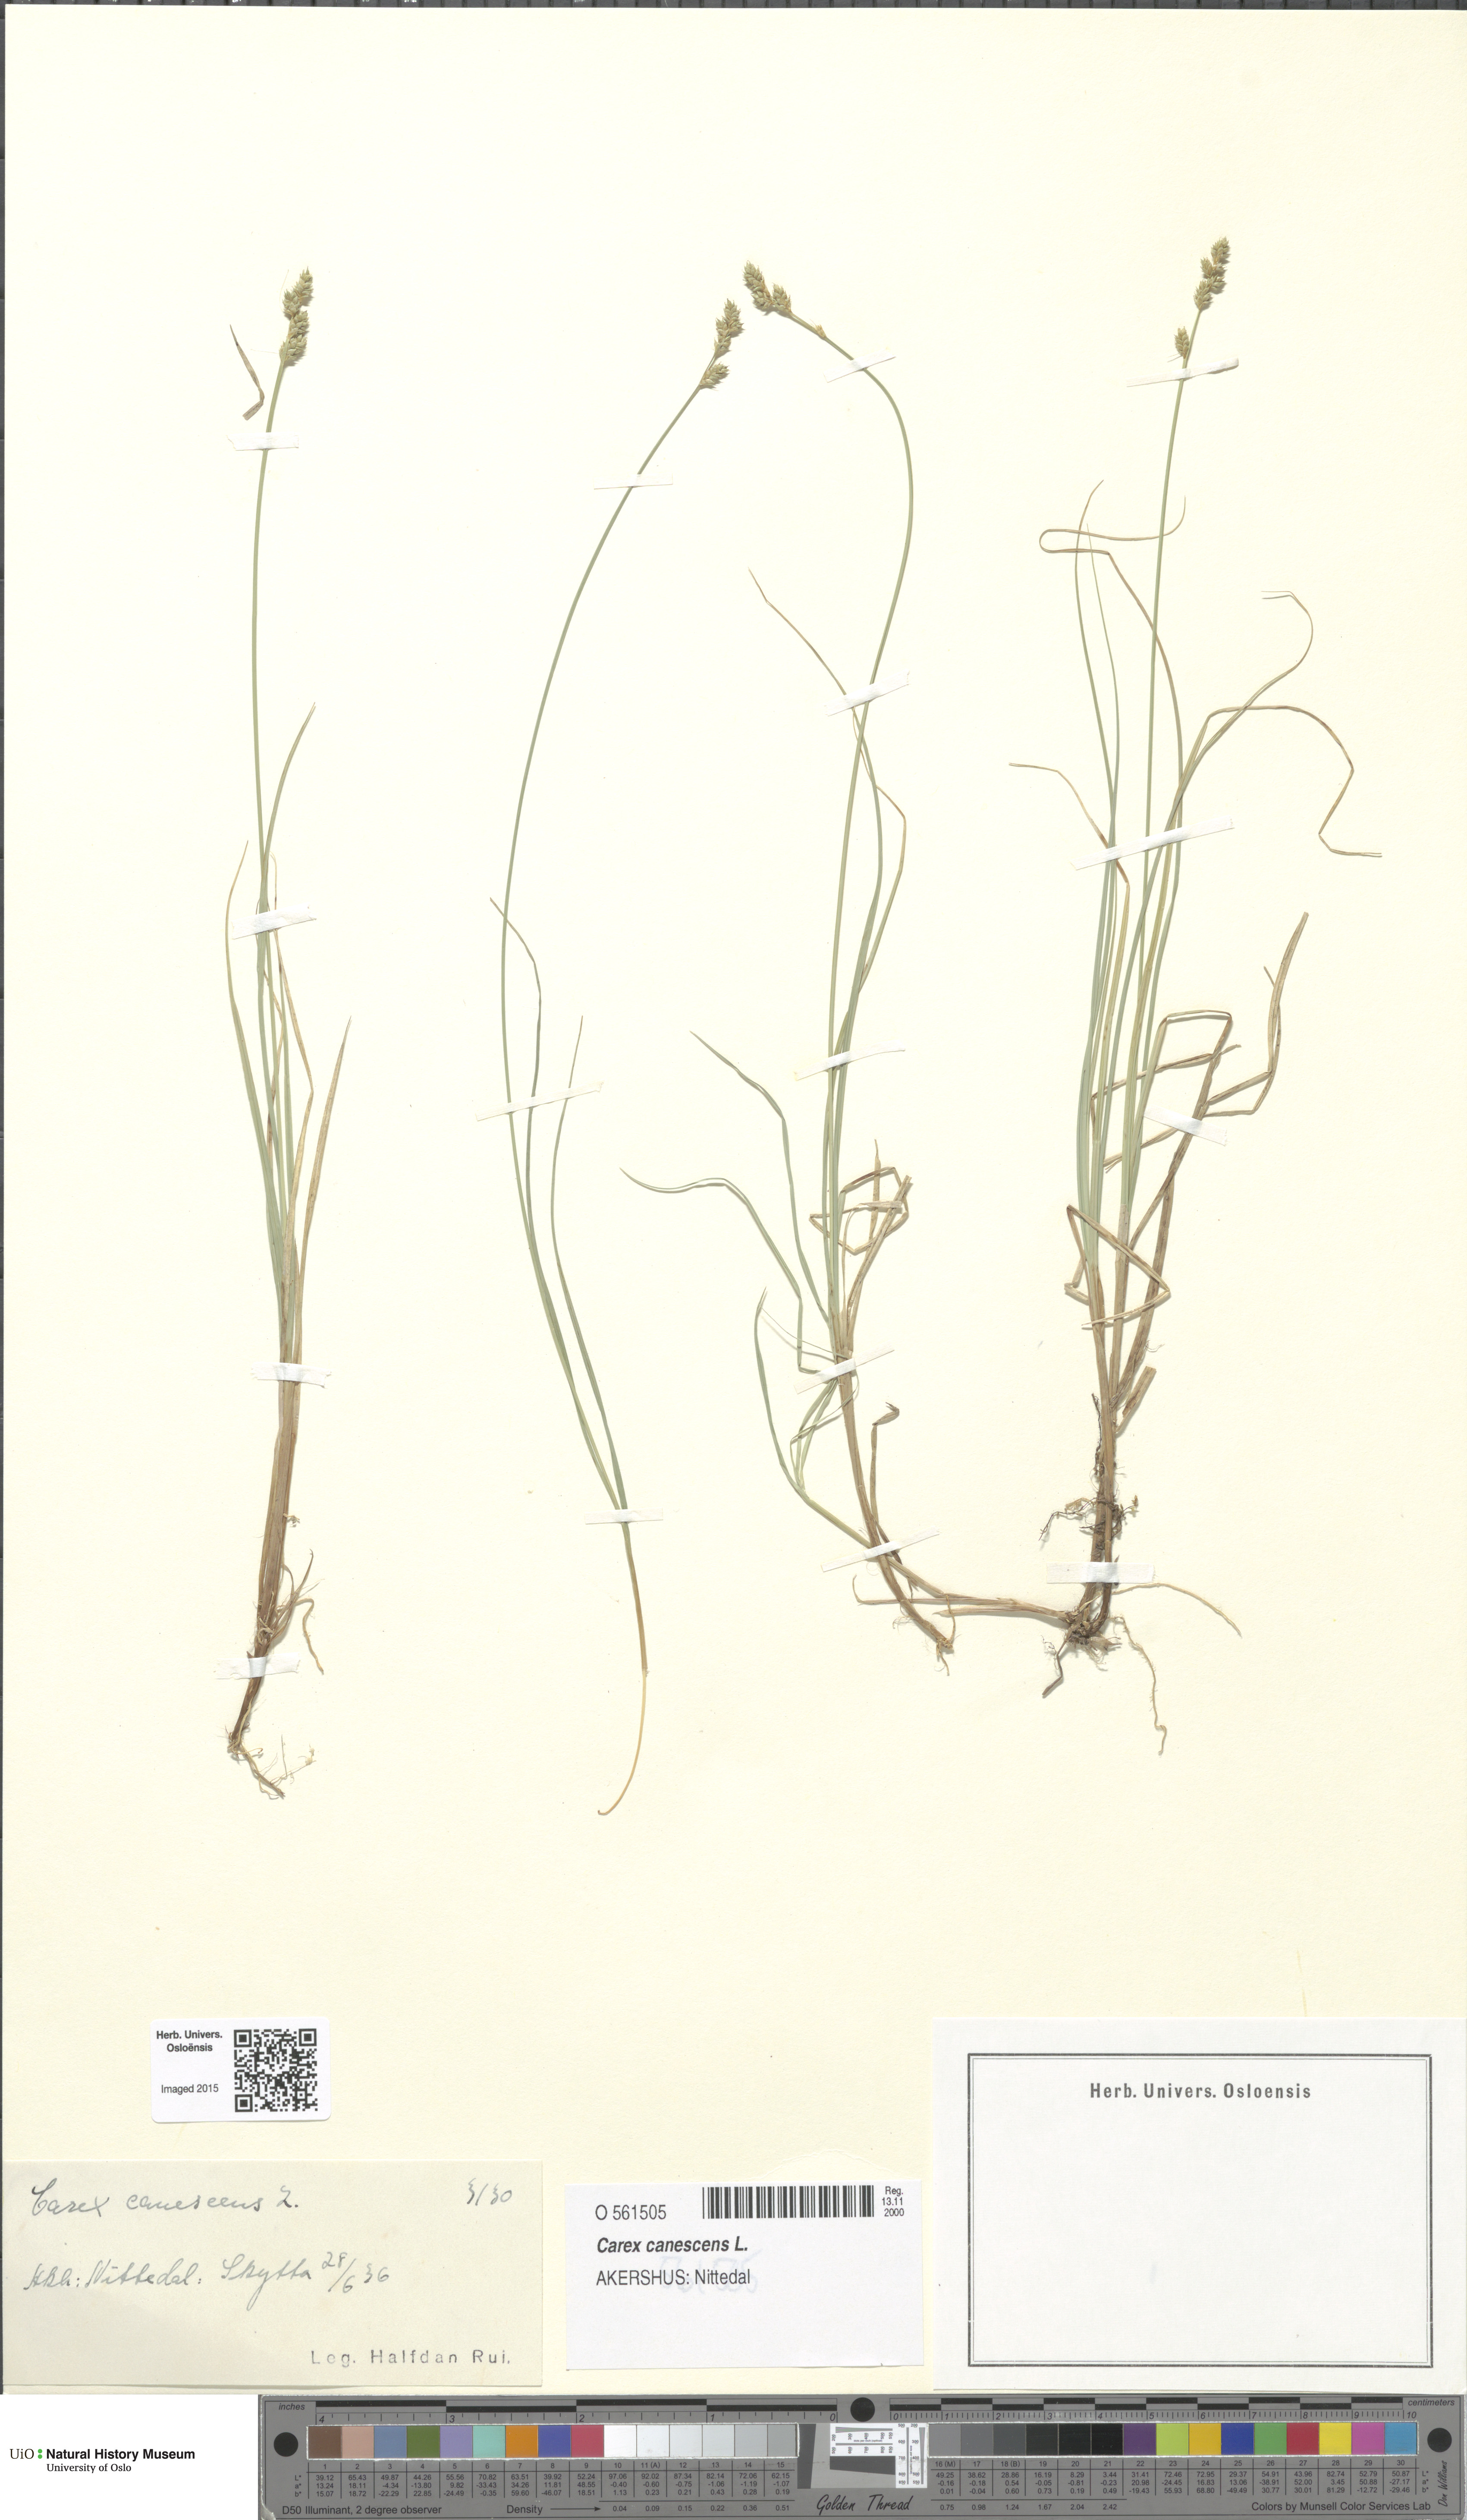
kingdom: Plantae
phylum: Tracheophyta
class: Liliopsida
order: Poales
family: Cyperaceae
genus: Carex
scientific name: Carex canescens
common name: White sedge
